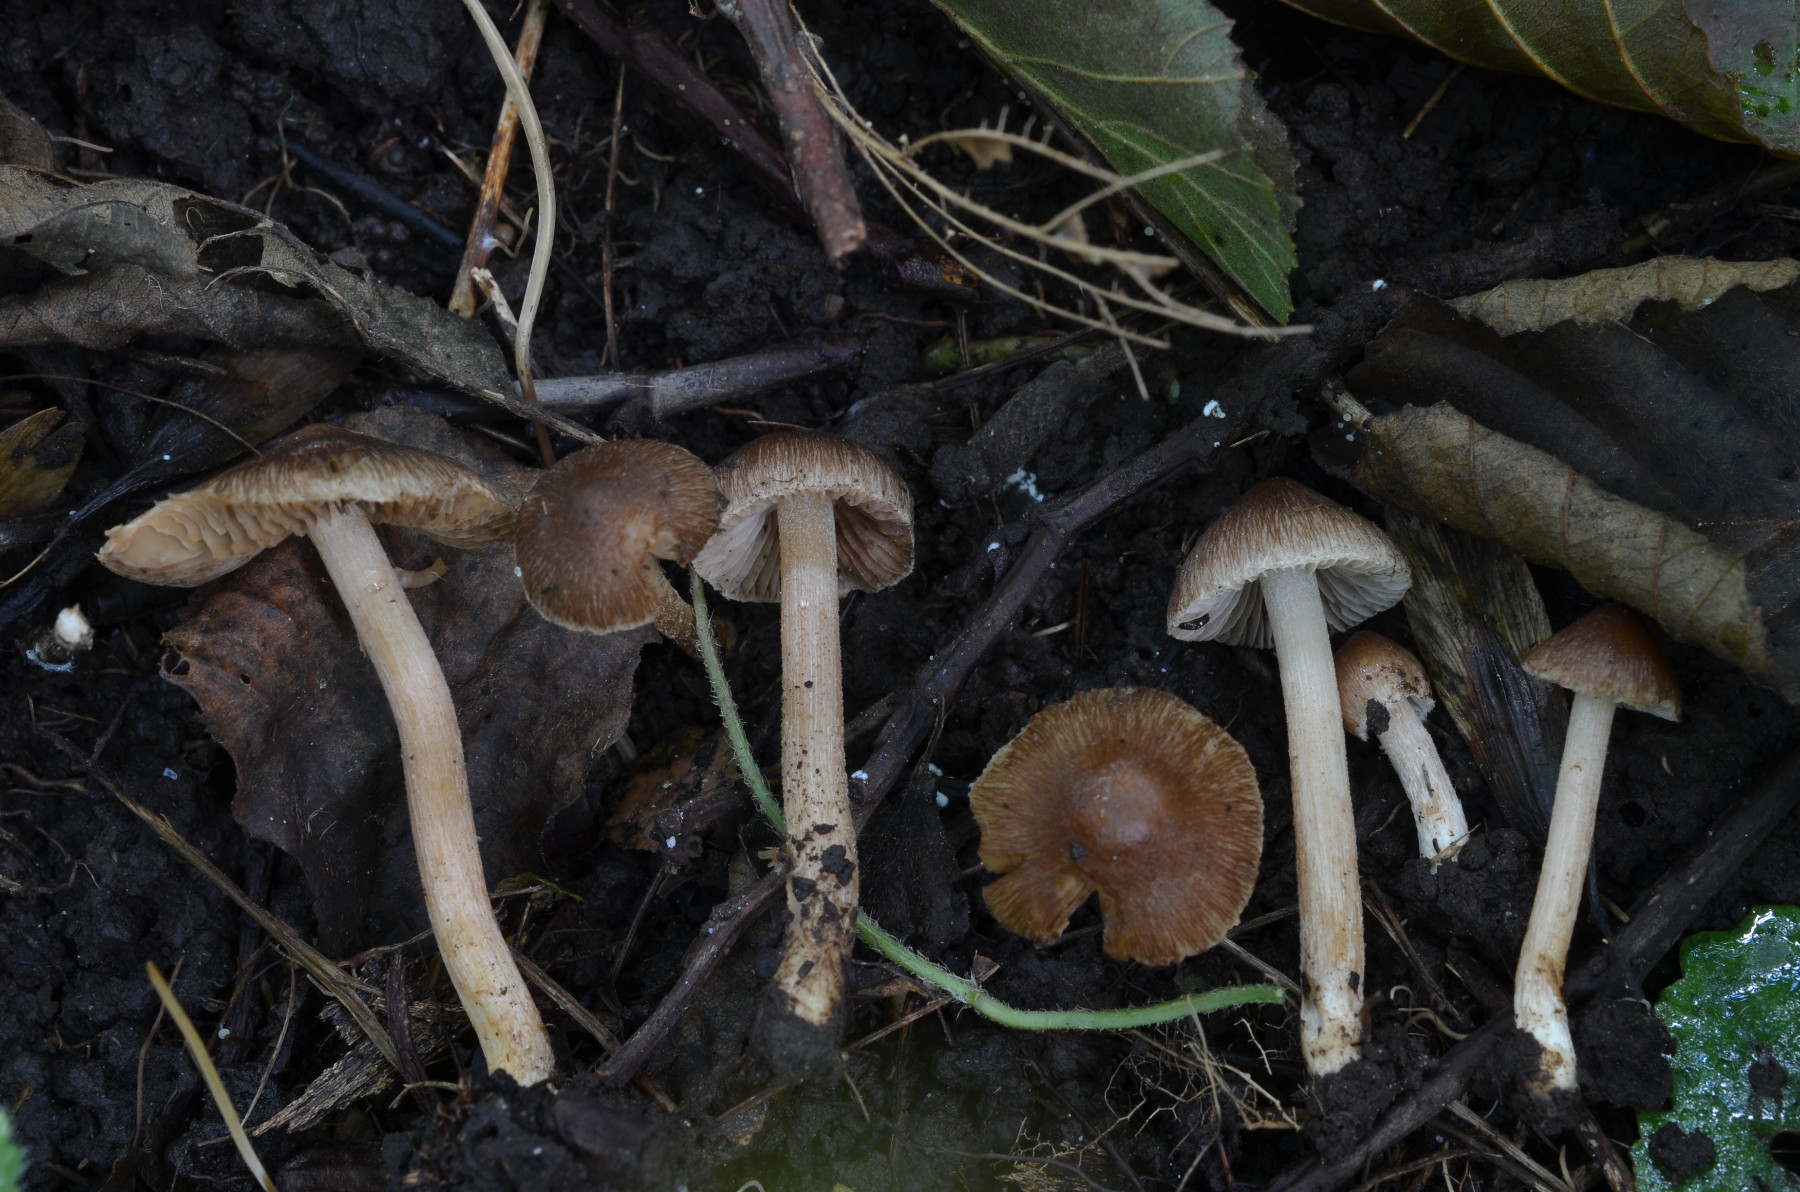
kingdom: Fungi
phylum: Basidiomycota
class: Agaricomycetes
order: Agaricales
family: Inocybaceae
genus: Inocybe
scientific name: Inocybe jucunda
